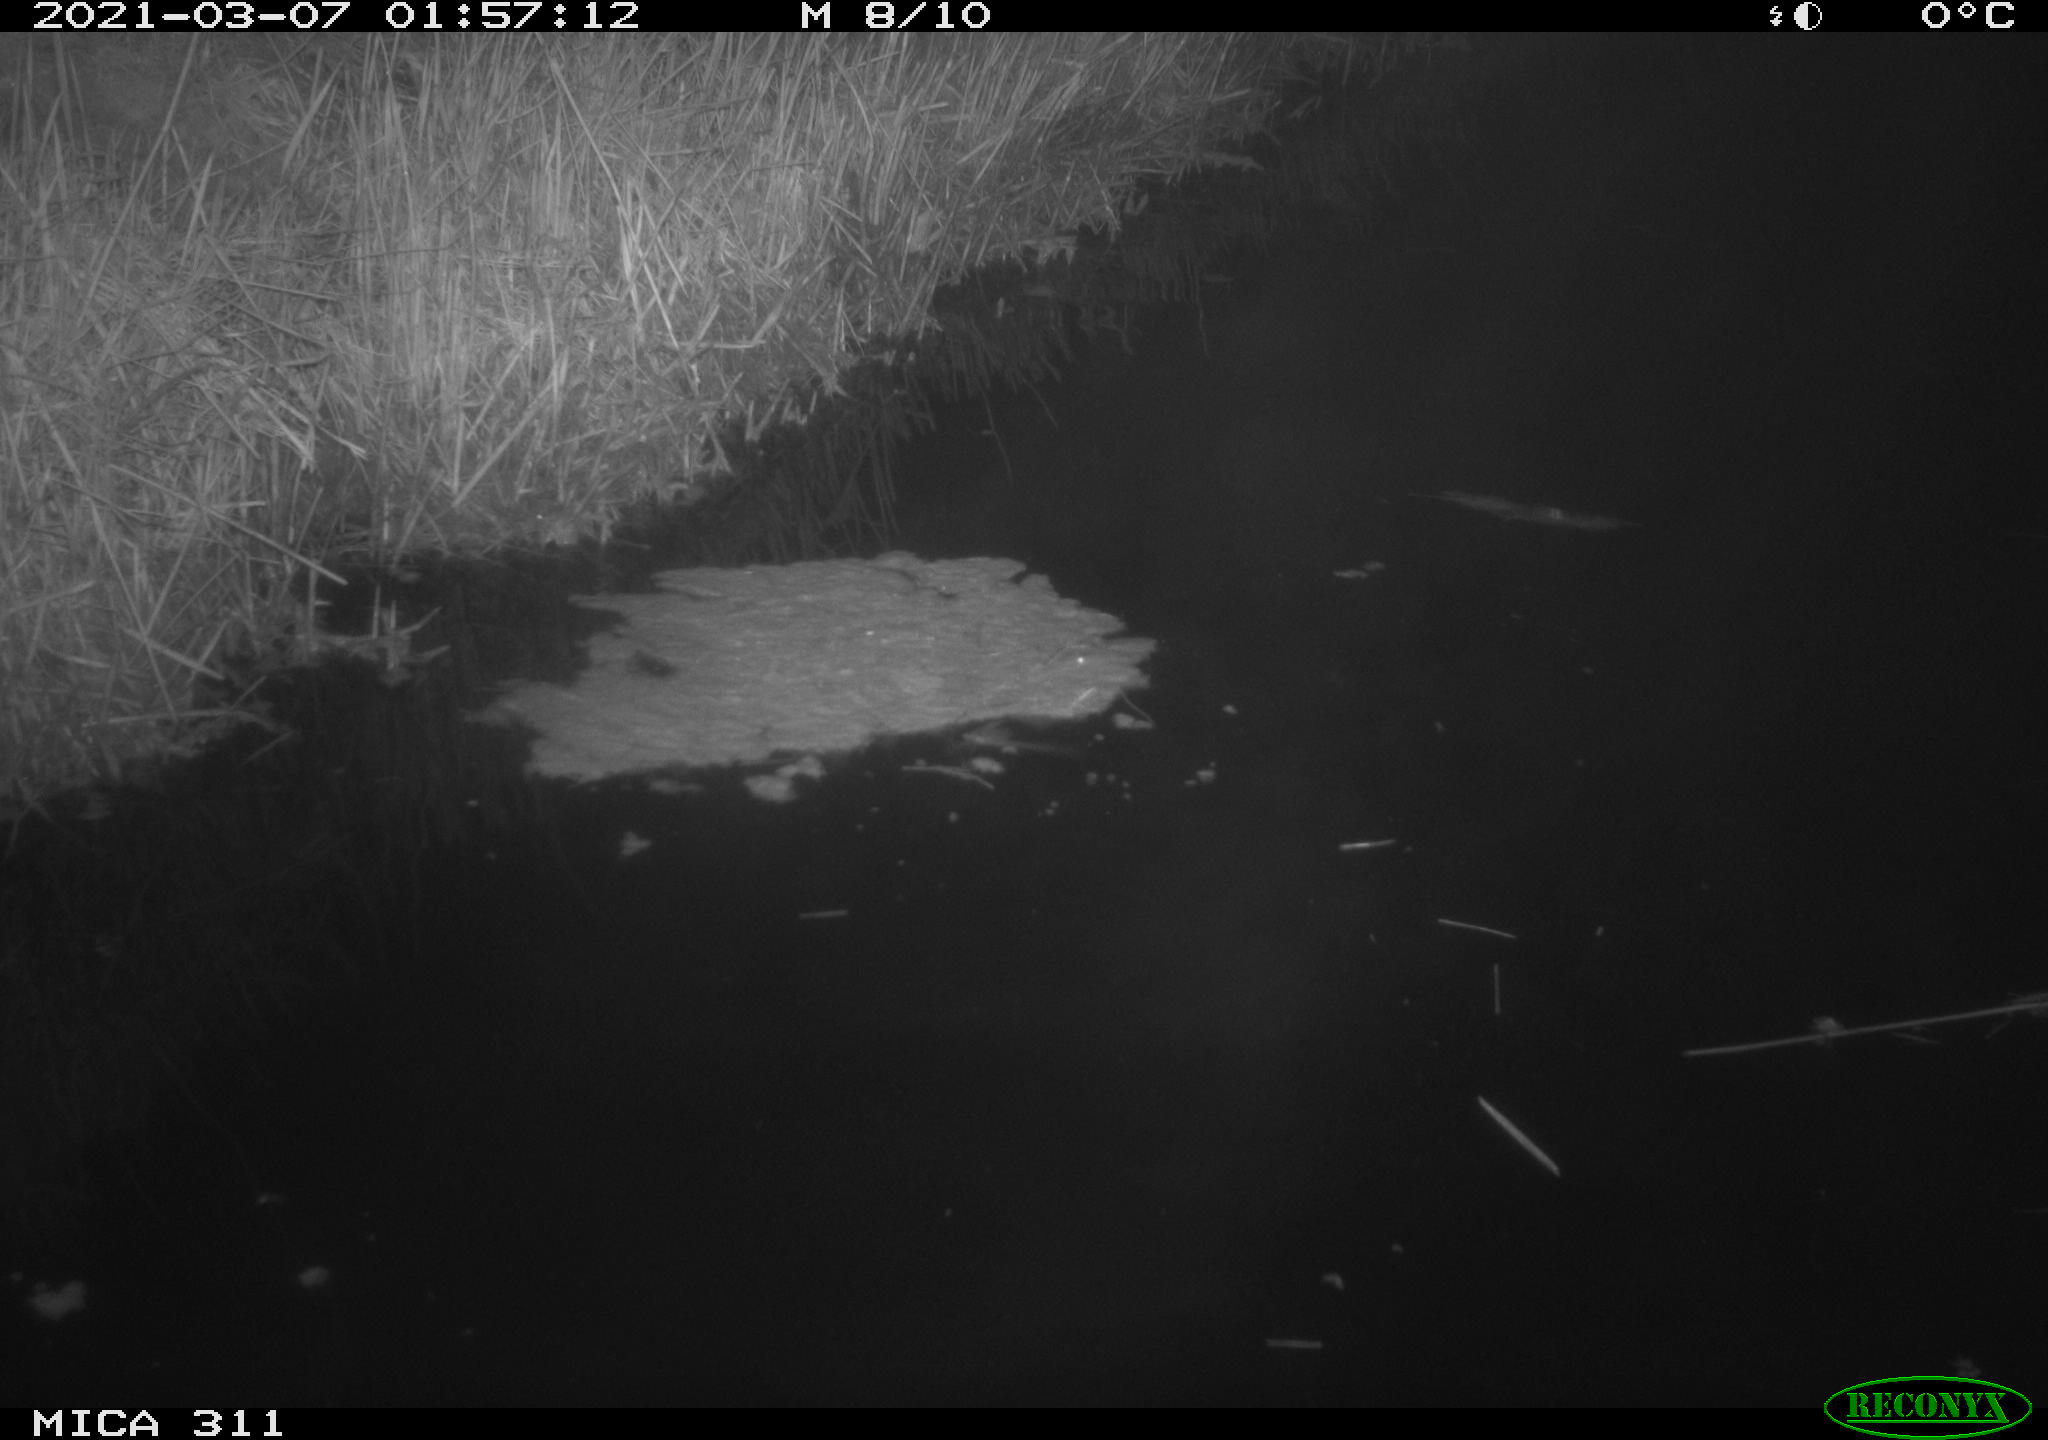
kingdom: Animalia
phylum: Chordata
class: Aves
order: Anseriformes
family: Anatidae
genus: Anas
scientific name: Anas platyrhynchos
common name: Mallard
